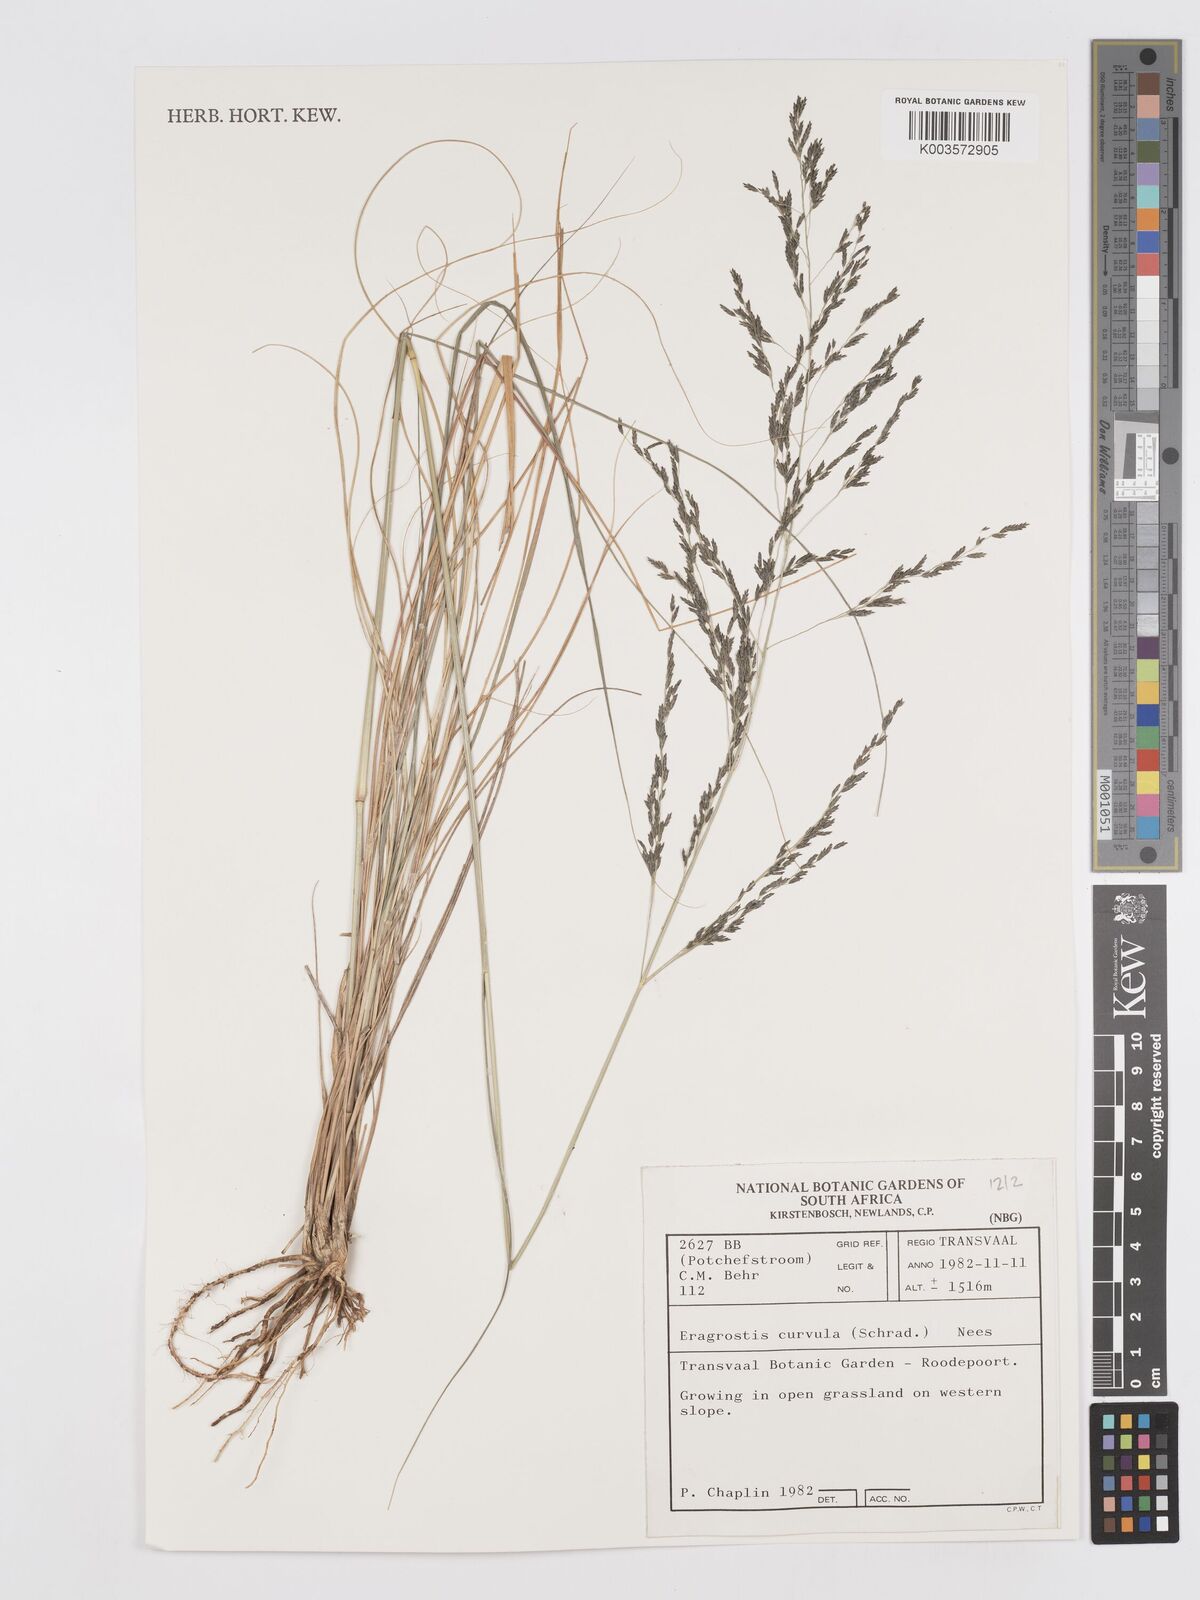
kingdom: Plantae
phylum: Tracheophyta
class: Liliopsida
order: Poales
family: Poaceae
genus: Eragrostis
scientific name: Eragrostis curvula
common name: African love-grass
